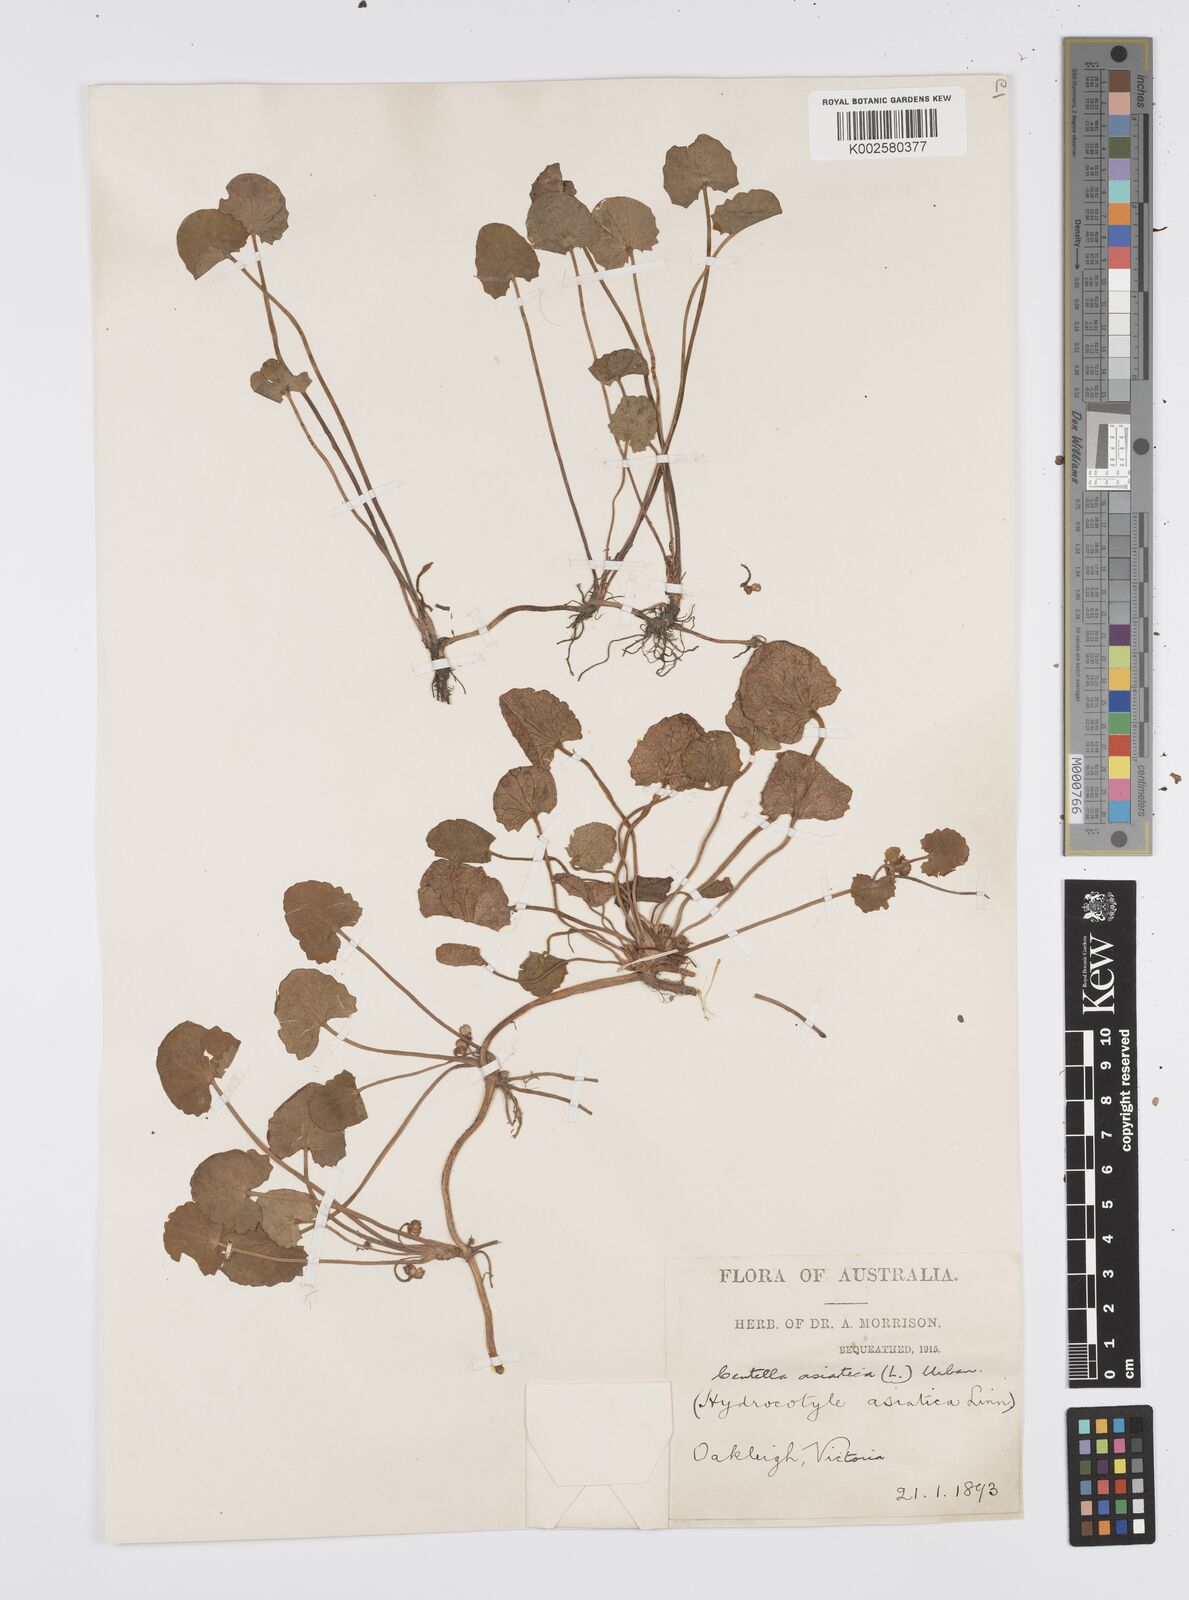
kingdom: Plantae
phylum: Tracheophyta
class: Magnoliopsida
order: Apiales
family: Apiaceae
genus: Centella
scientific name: Centella asiatica
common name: Spadeleaf
